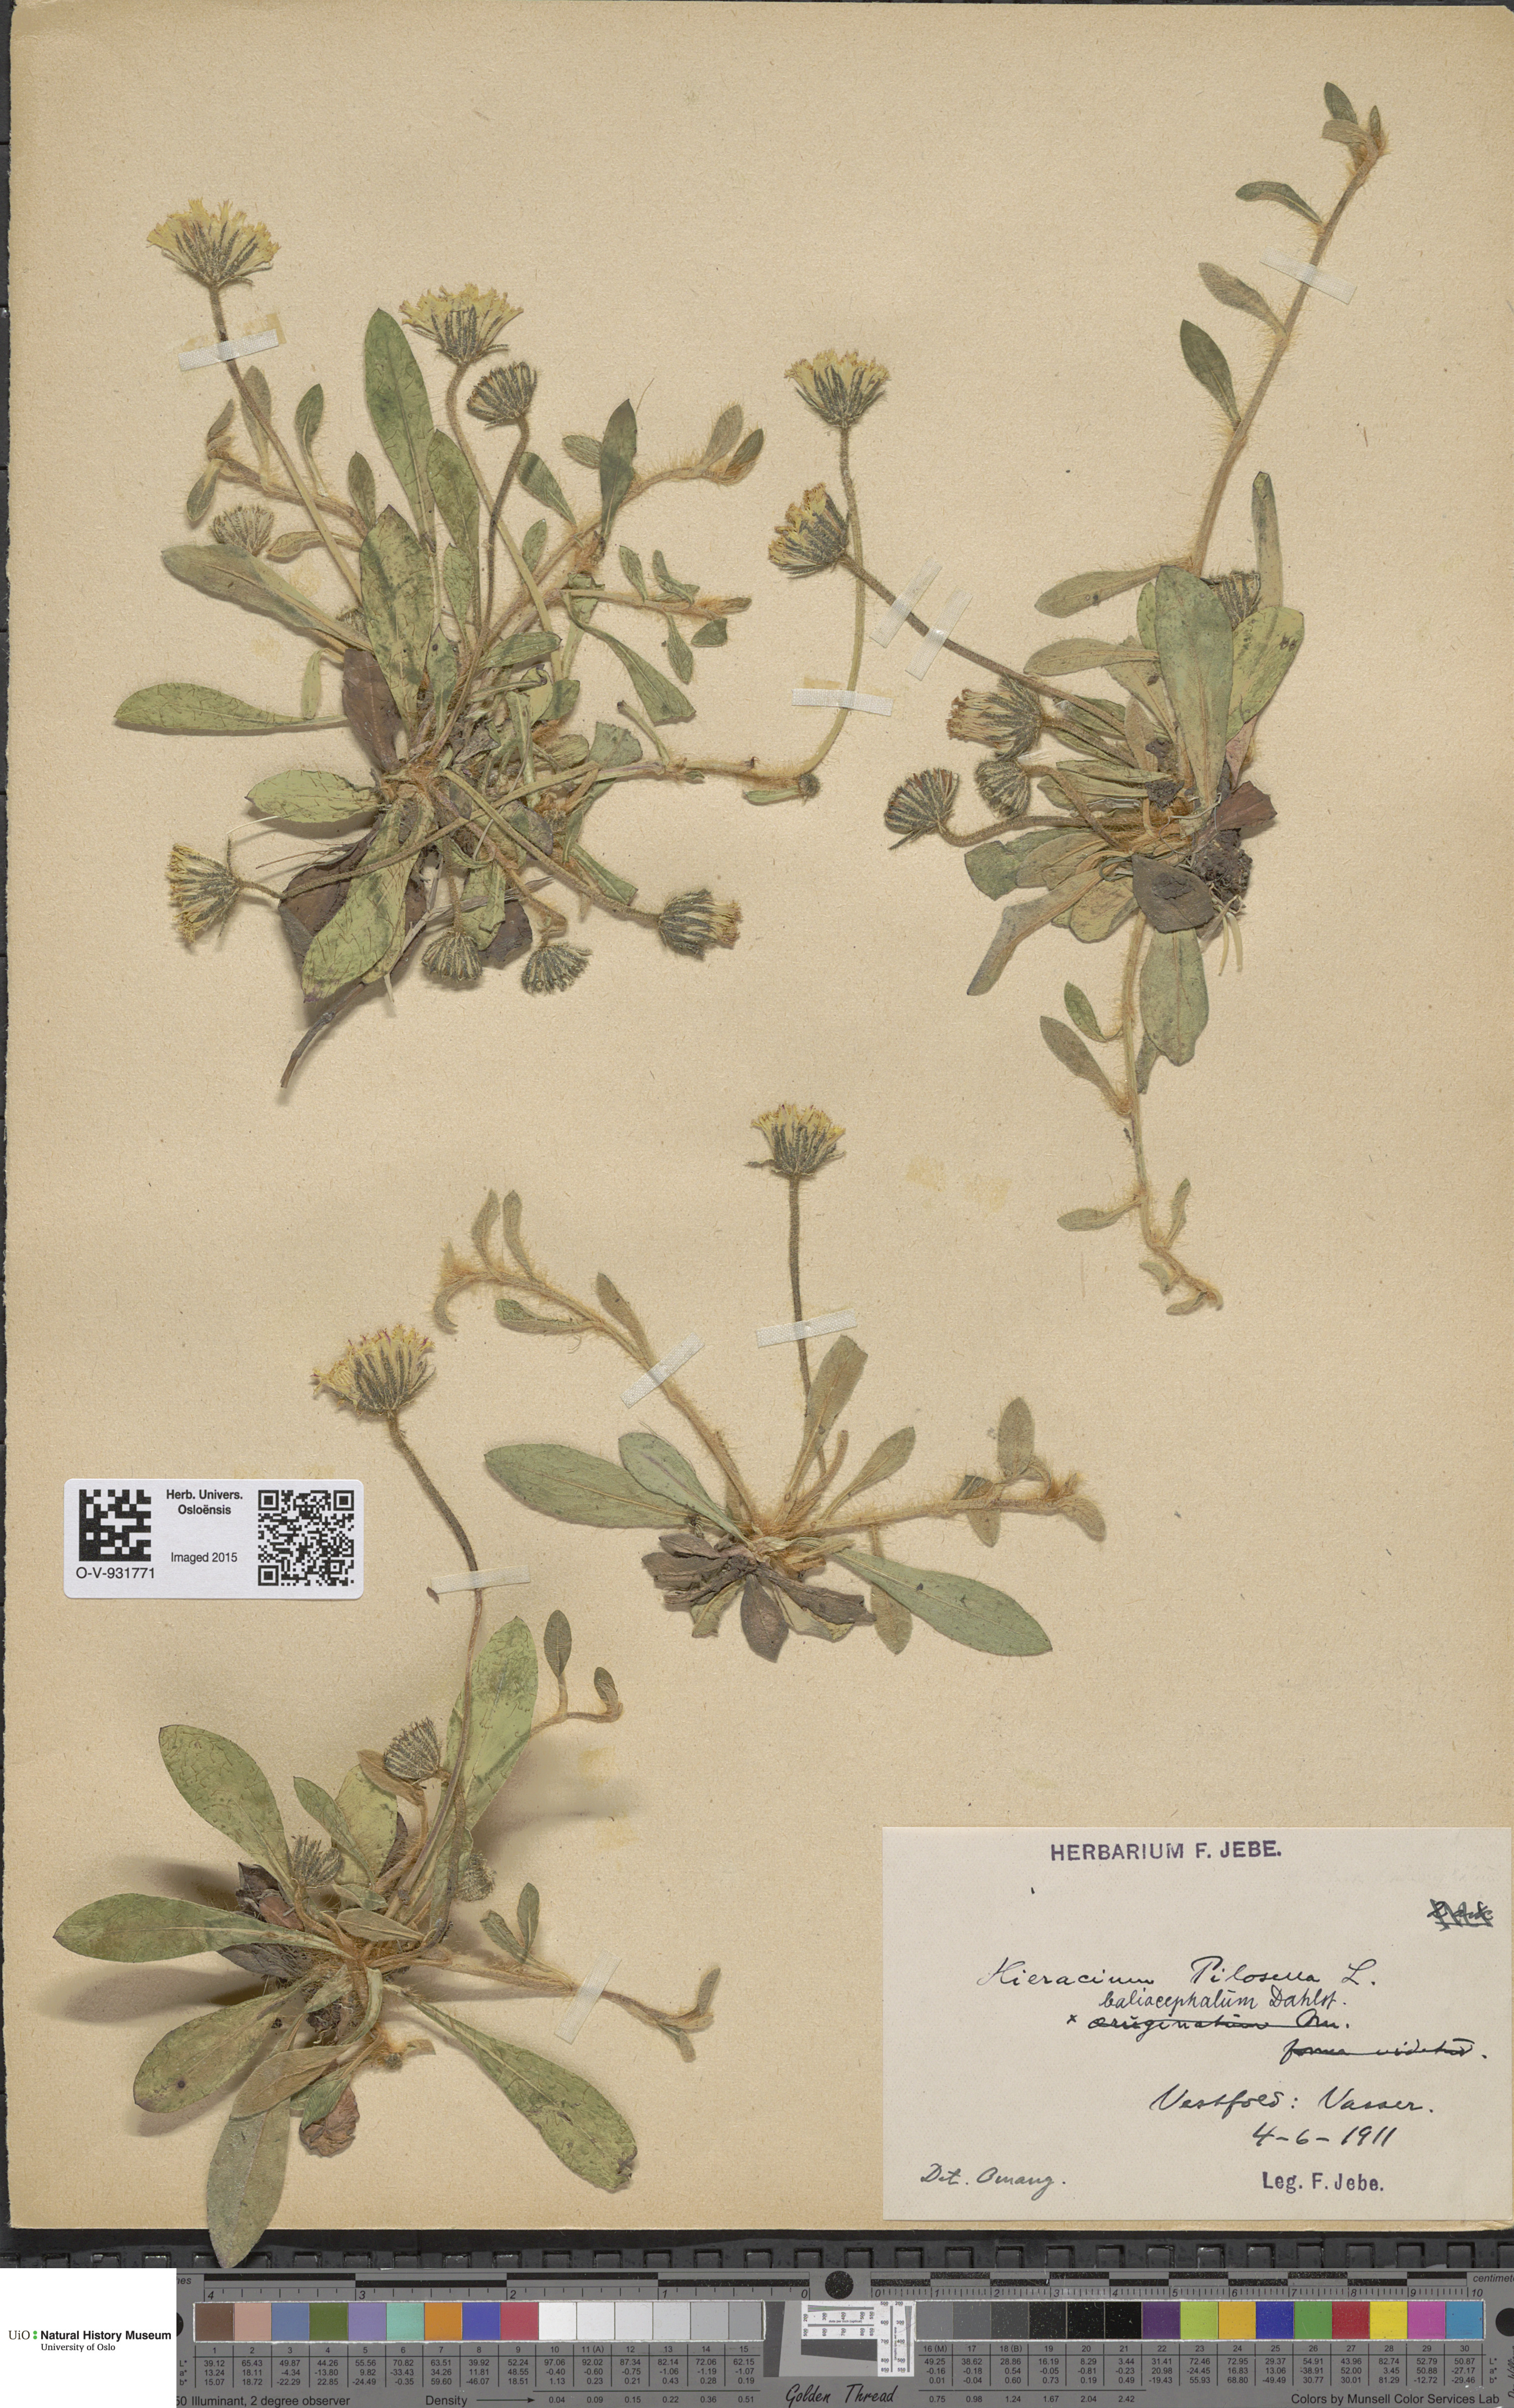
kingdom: Plantae
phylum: Tracheophyta
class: Magnoliopsida
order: Asterales
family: Asteraceae
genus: Pilosella
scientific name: Pilosella officinarum
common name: Mouse-ear hawkweed
